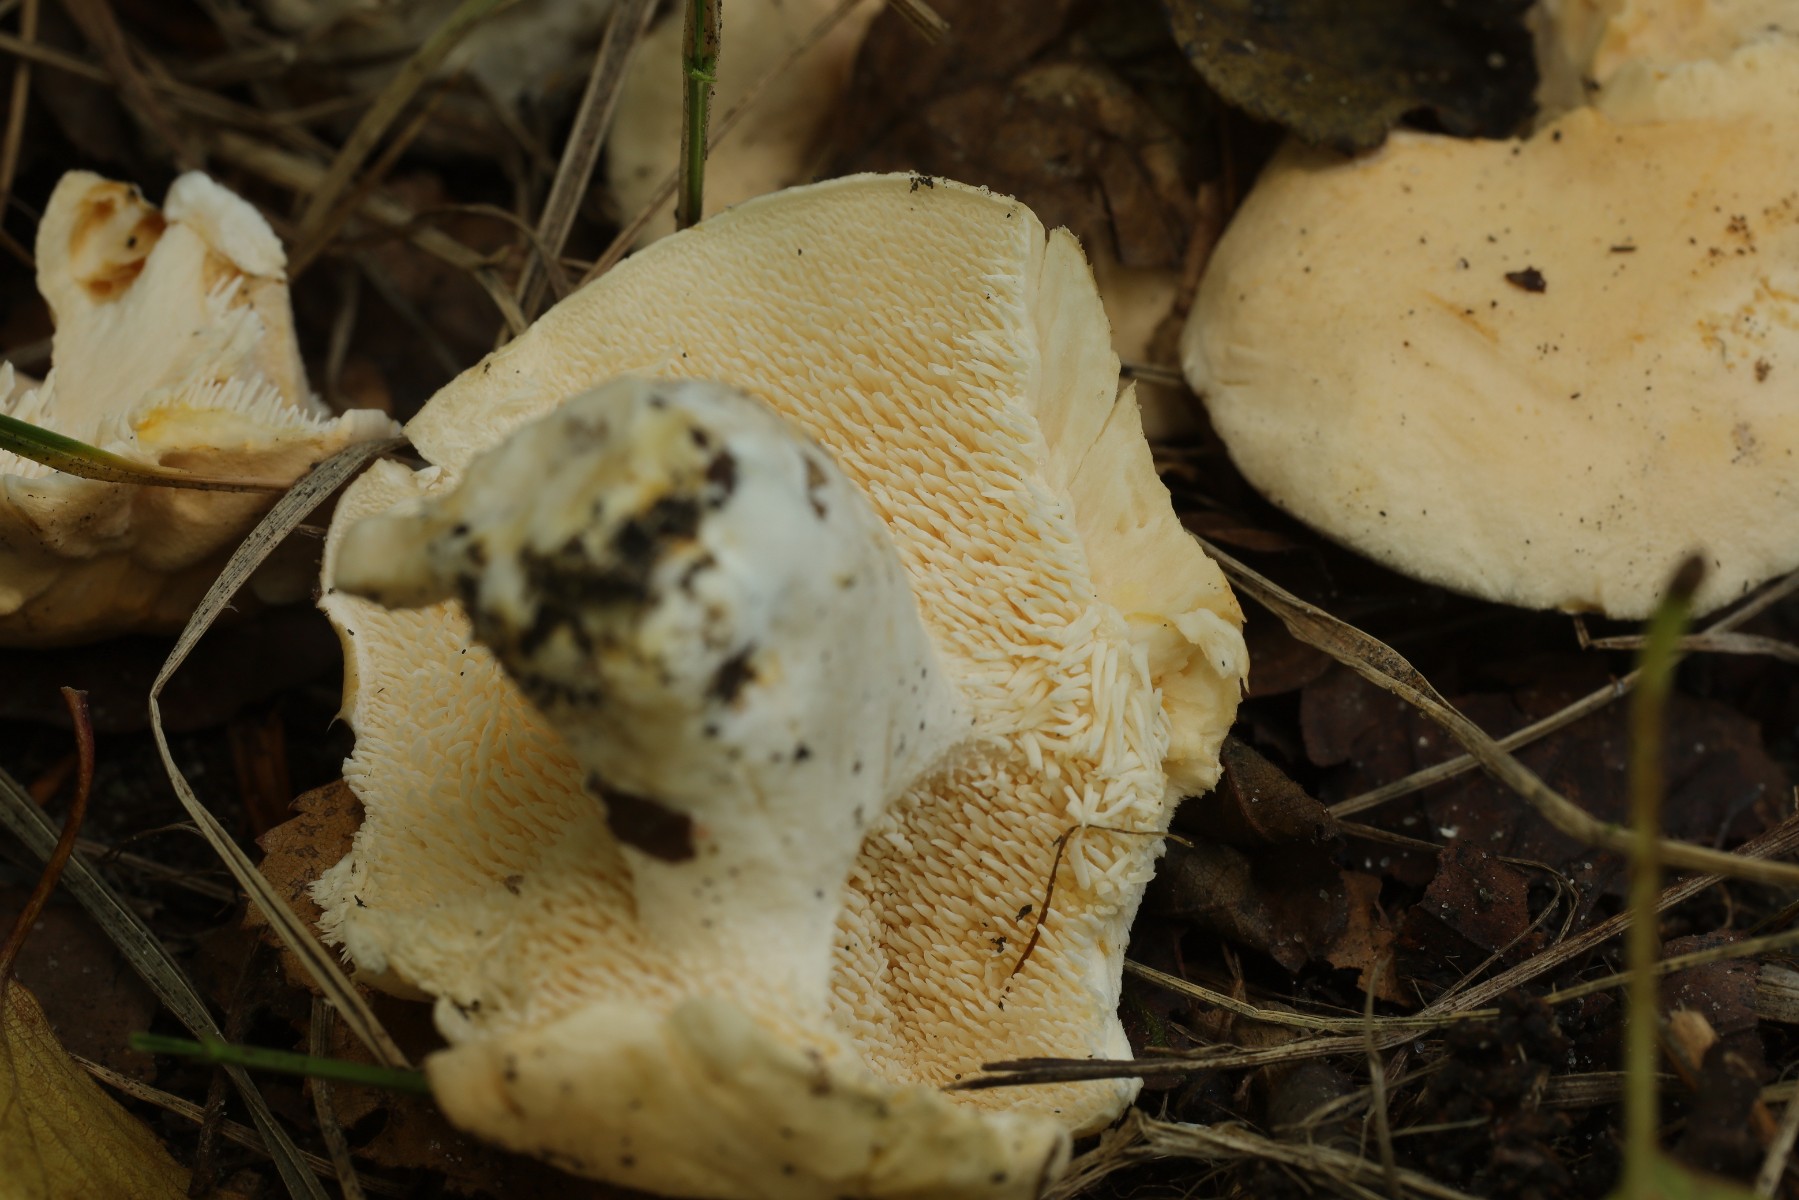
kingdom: Fungi
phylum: Basidiomycota
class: Agaricomycetes
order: Cantharellales
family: Hydnaceae
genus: Hydnum
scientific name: Hydnum
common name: pigsvamp
